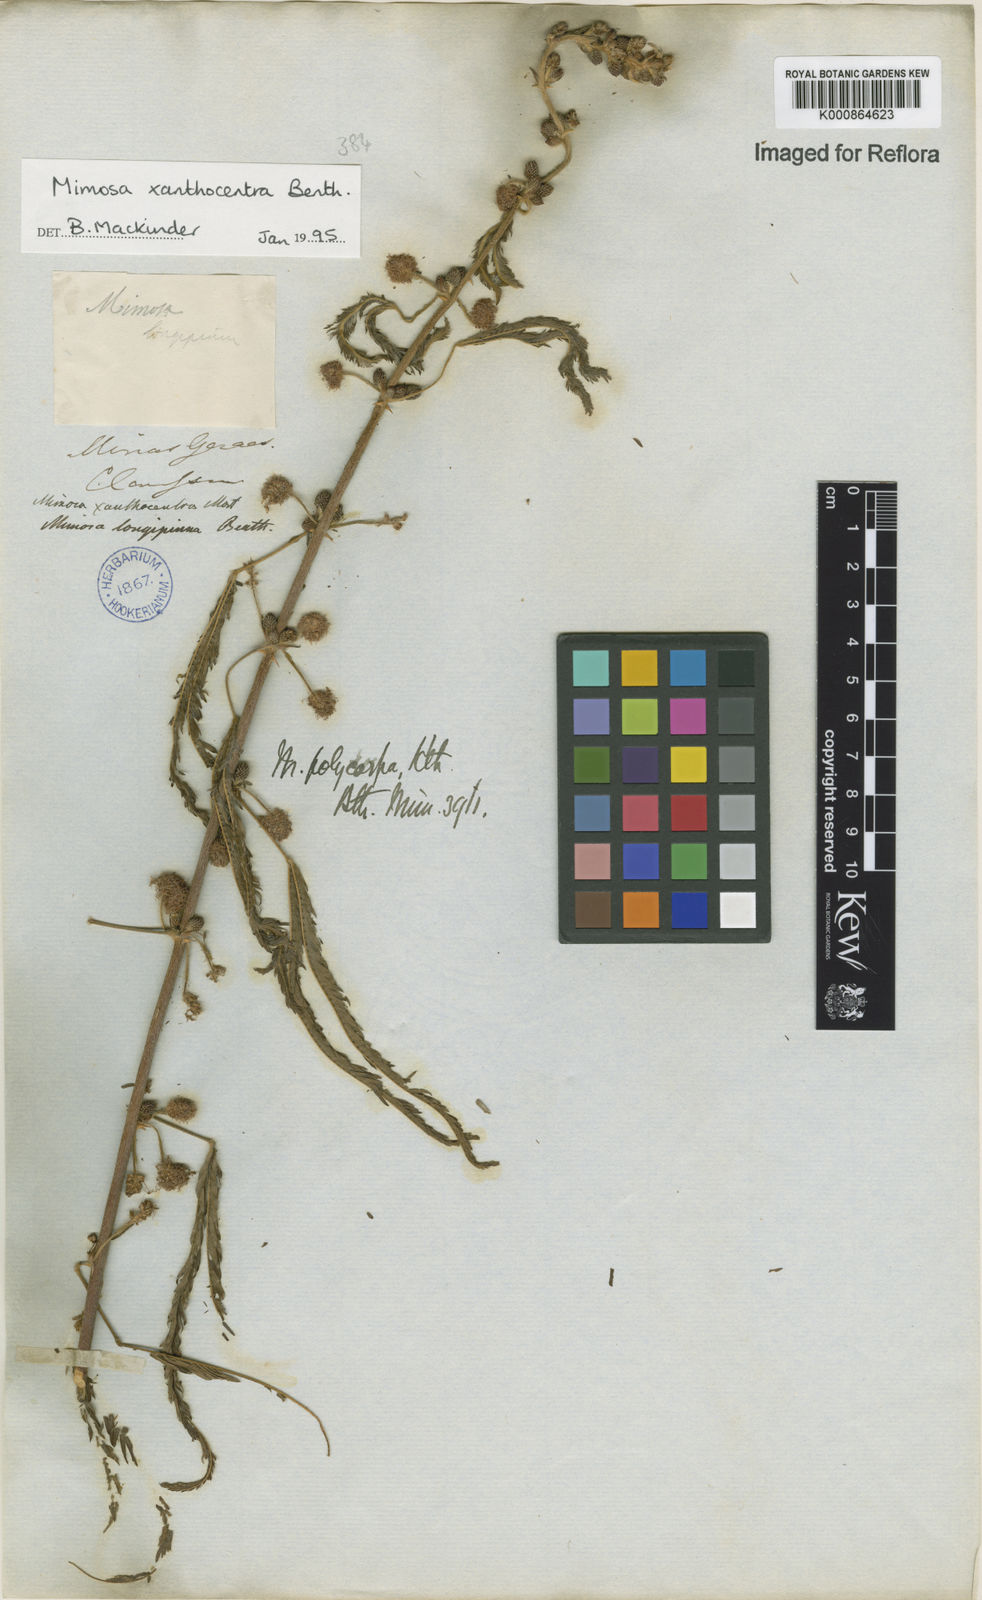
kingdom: Plantae
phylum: Tracheophyta
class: Magnoliopsida
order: Fabales
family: Fabaceae
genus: Mimosa
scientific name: Mimosa
